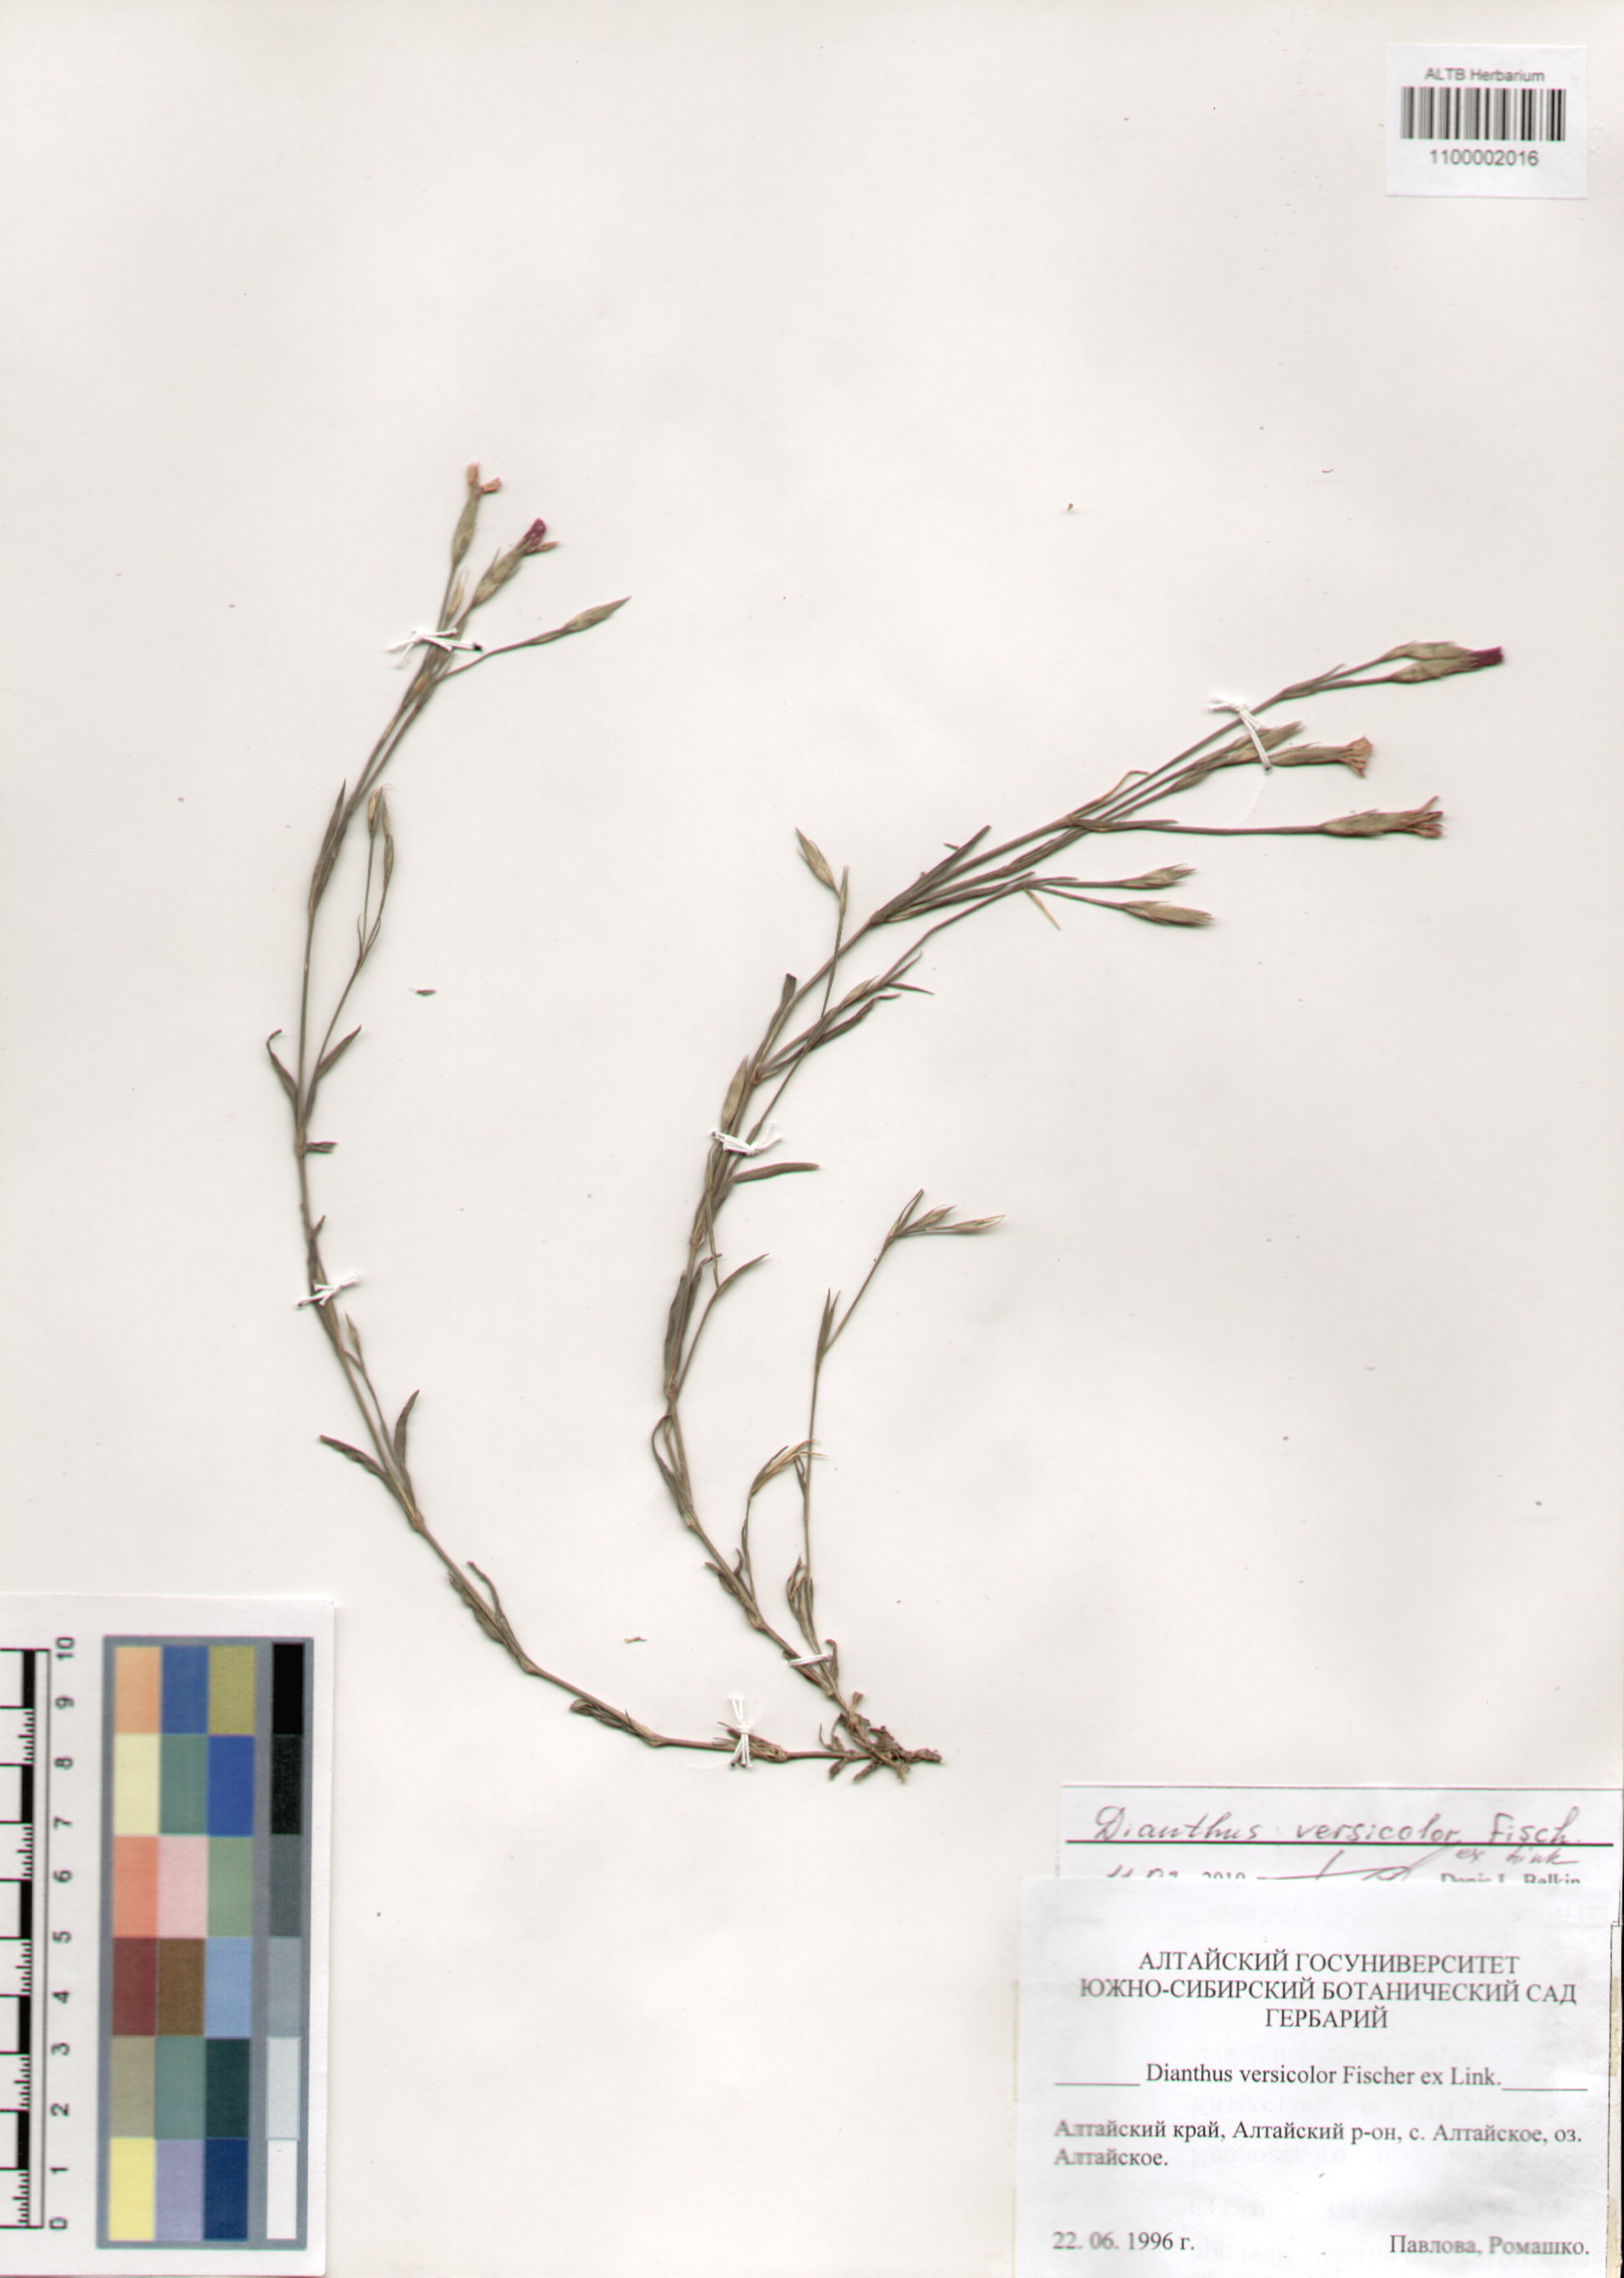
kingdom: Plantae
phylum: Tracheophyta
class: Magnoliopsida
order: Caryophyllales
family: Caryophyllaceae
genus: Dianthus
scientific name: Dianthus chinensis
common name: Rainbow pink
